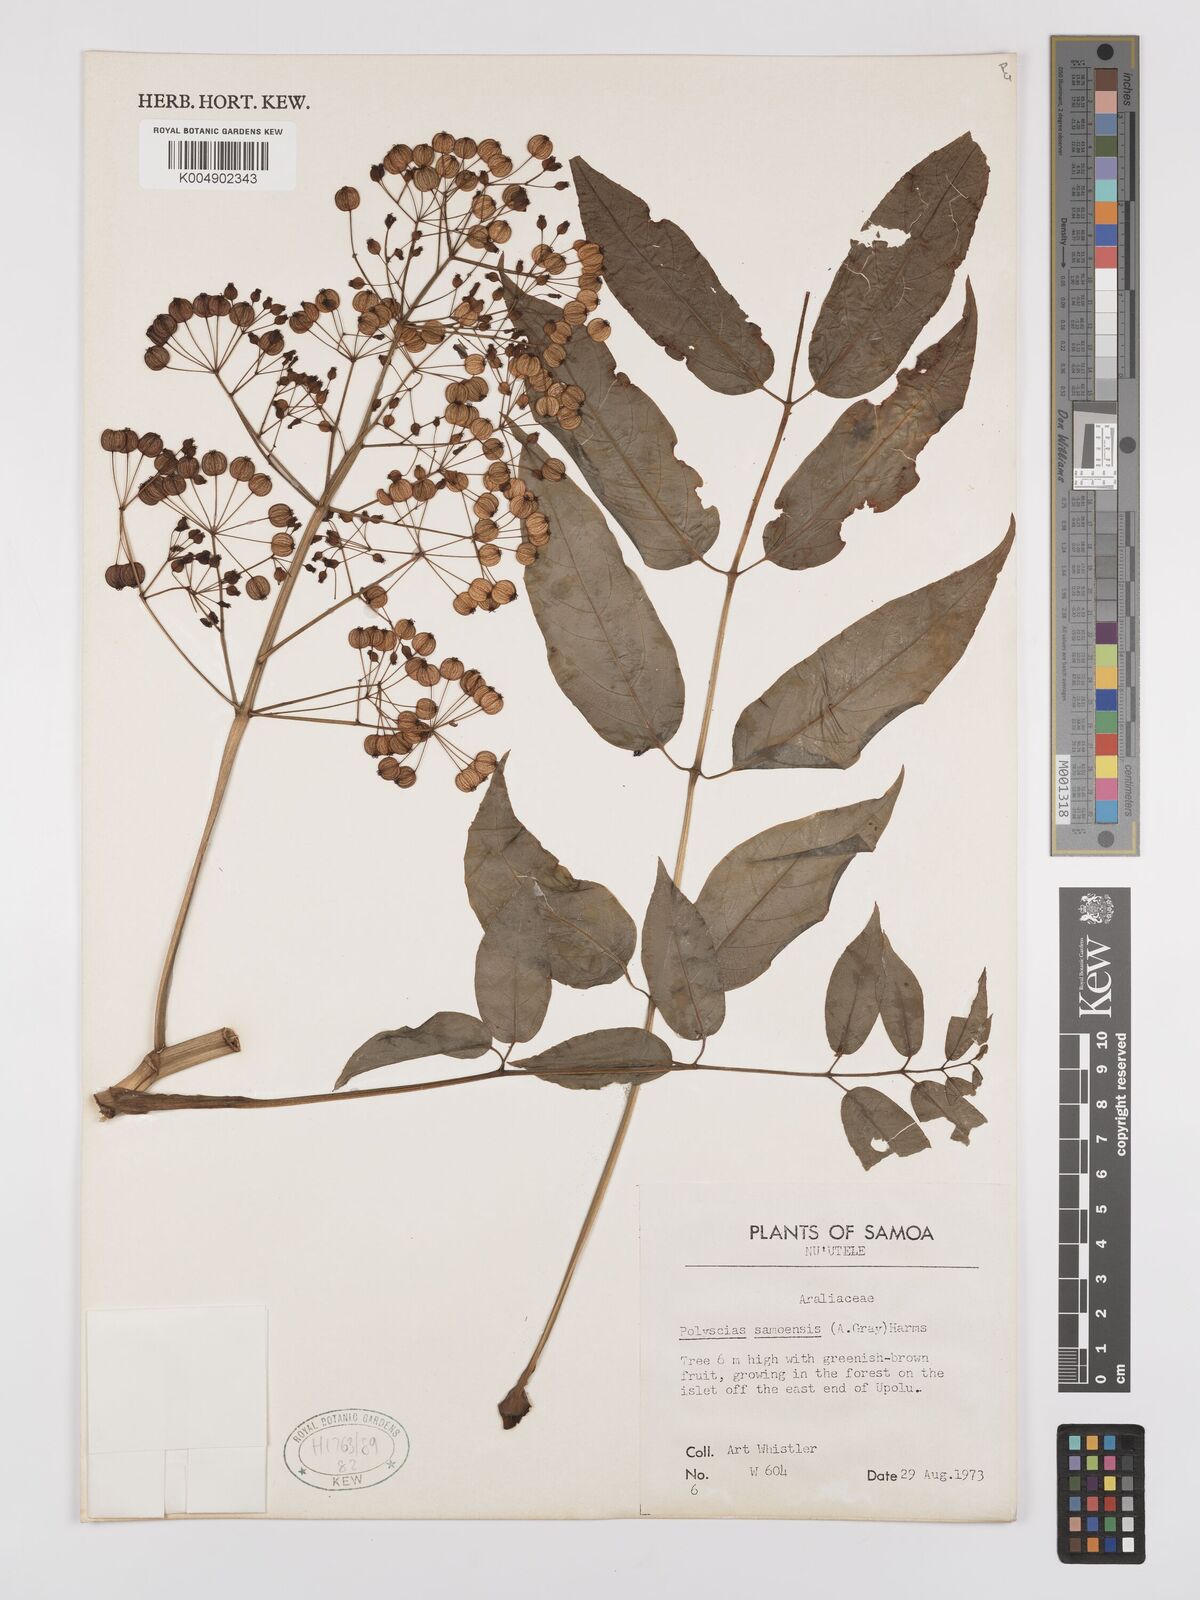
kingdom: Plantae
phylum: Tracheophyta
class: Magnoliopsida
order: Apiales
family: Araliaceae
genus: Polyscias
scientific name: Polyscias samoensis
